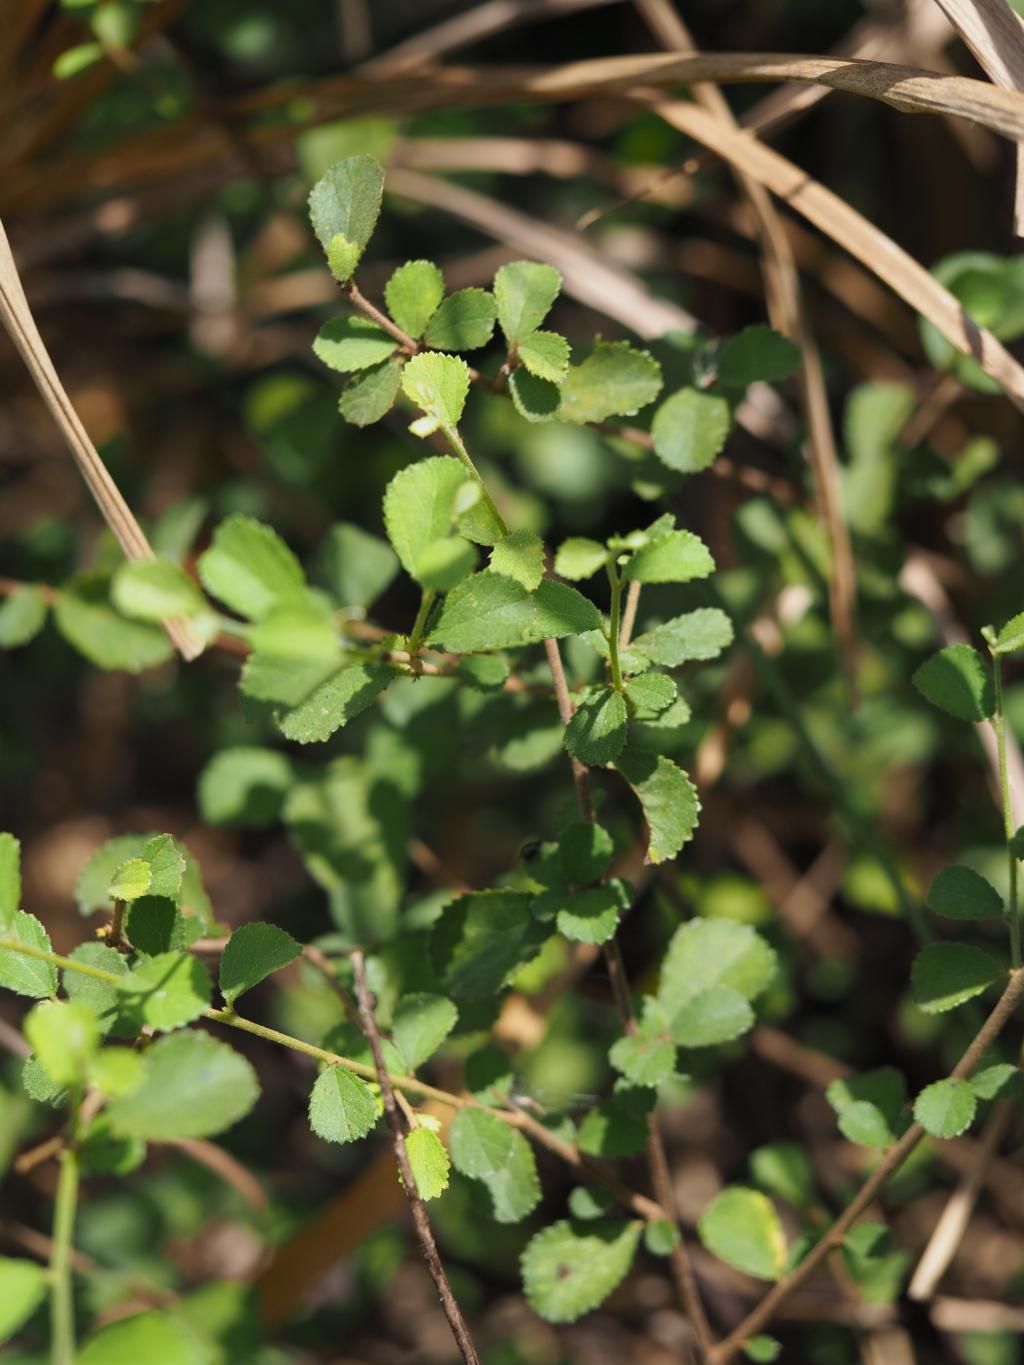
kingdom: Plantae
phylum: Tracheophyta
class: Magnoliopsida
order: Malvales
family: Malvaceae
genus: Grewia
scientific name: Grewia piscatorum
